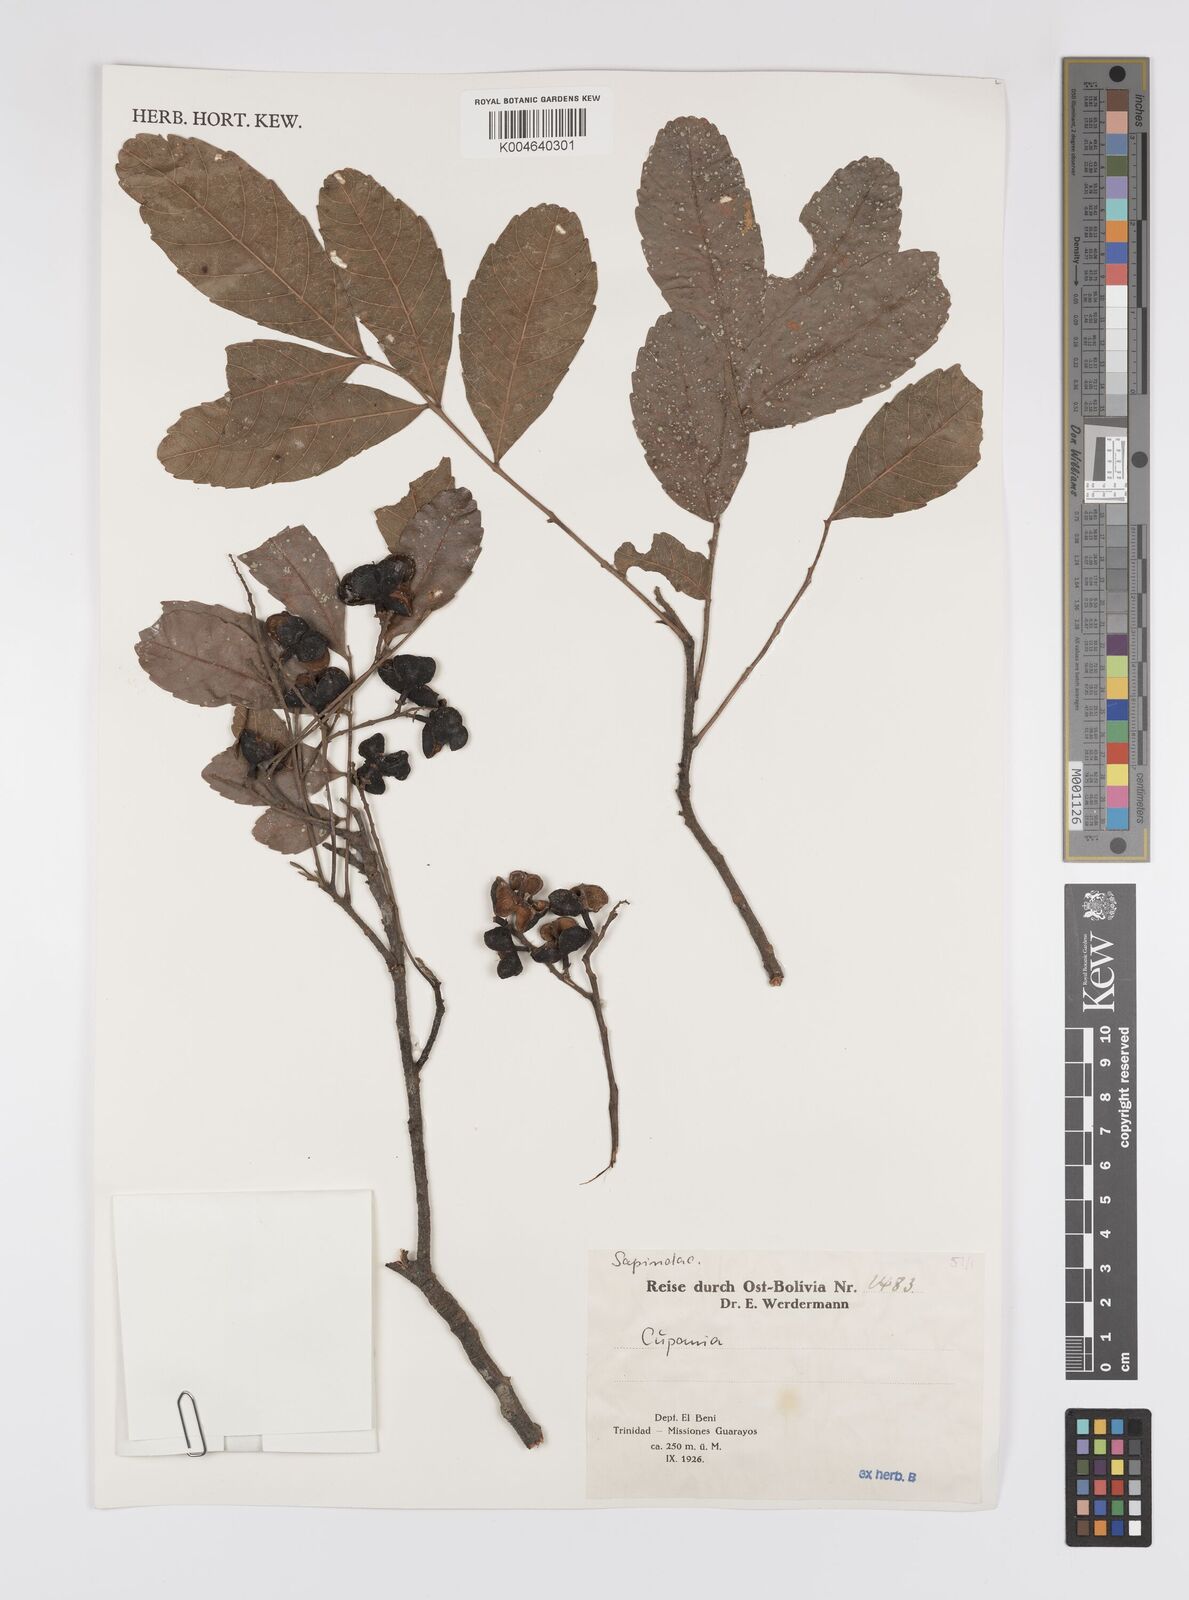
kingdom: Plantae
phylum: Tracheophyta
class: Magnoliopsida
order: Sapindales
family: Sapindaceae
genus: Cupania
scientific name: Cupania
